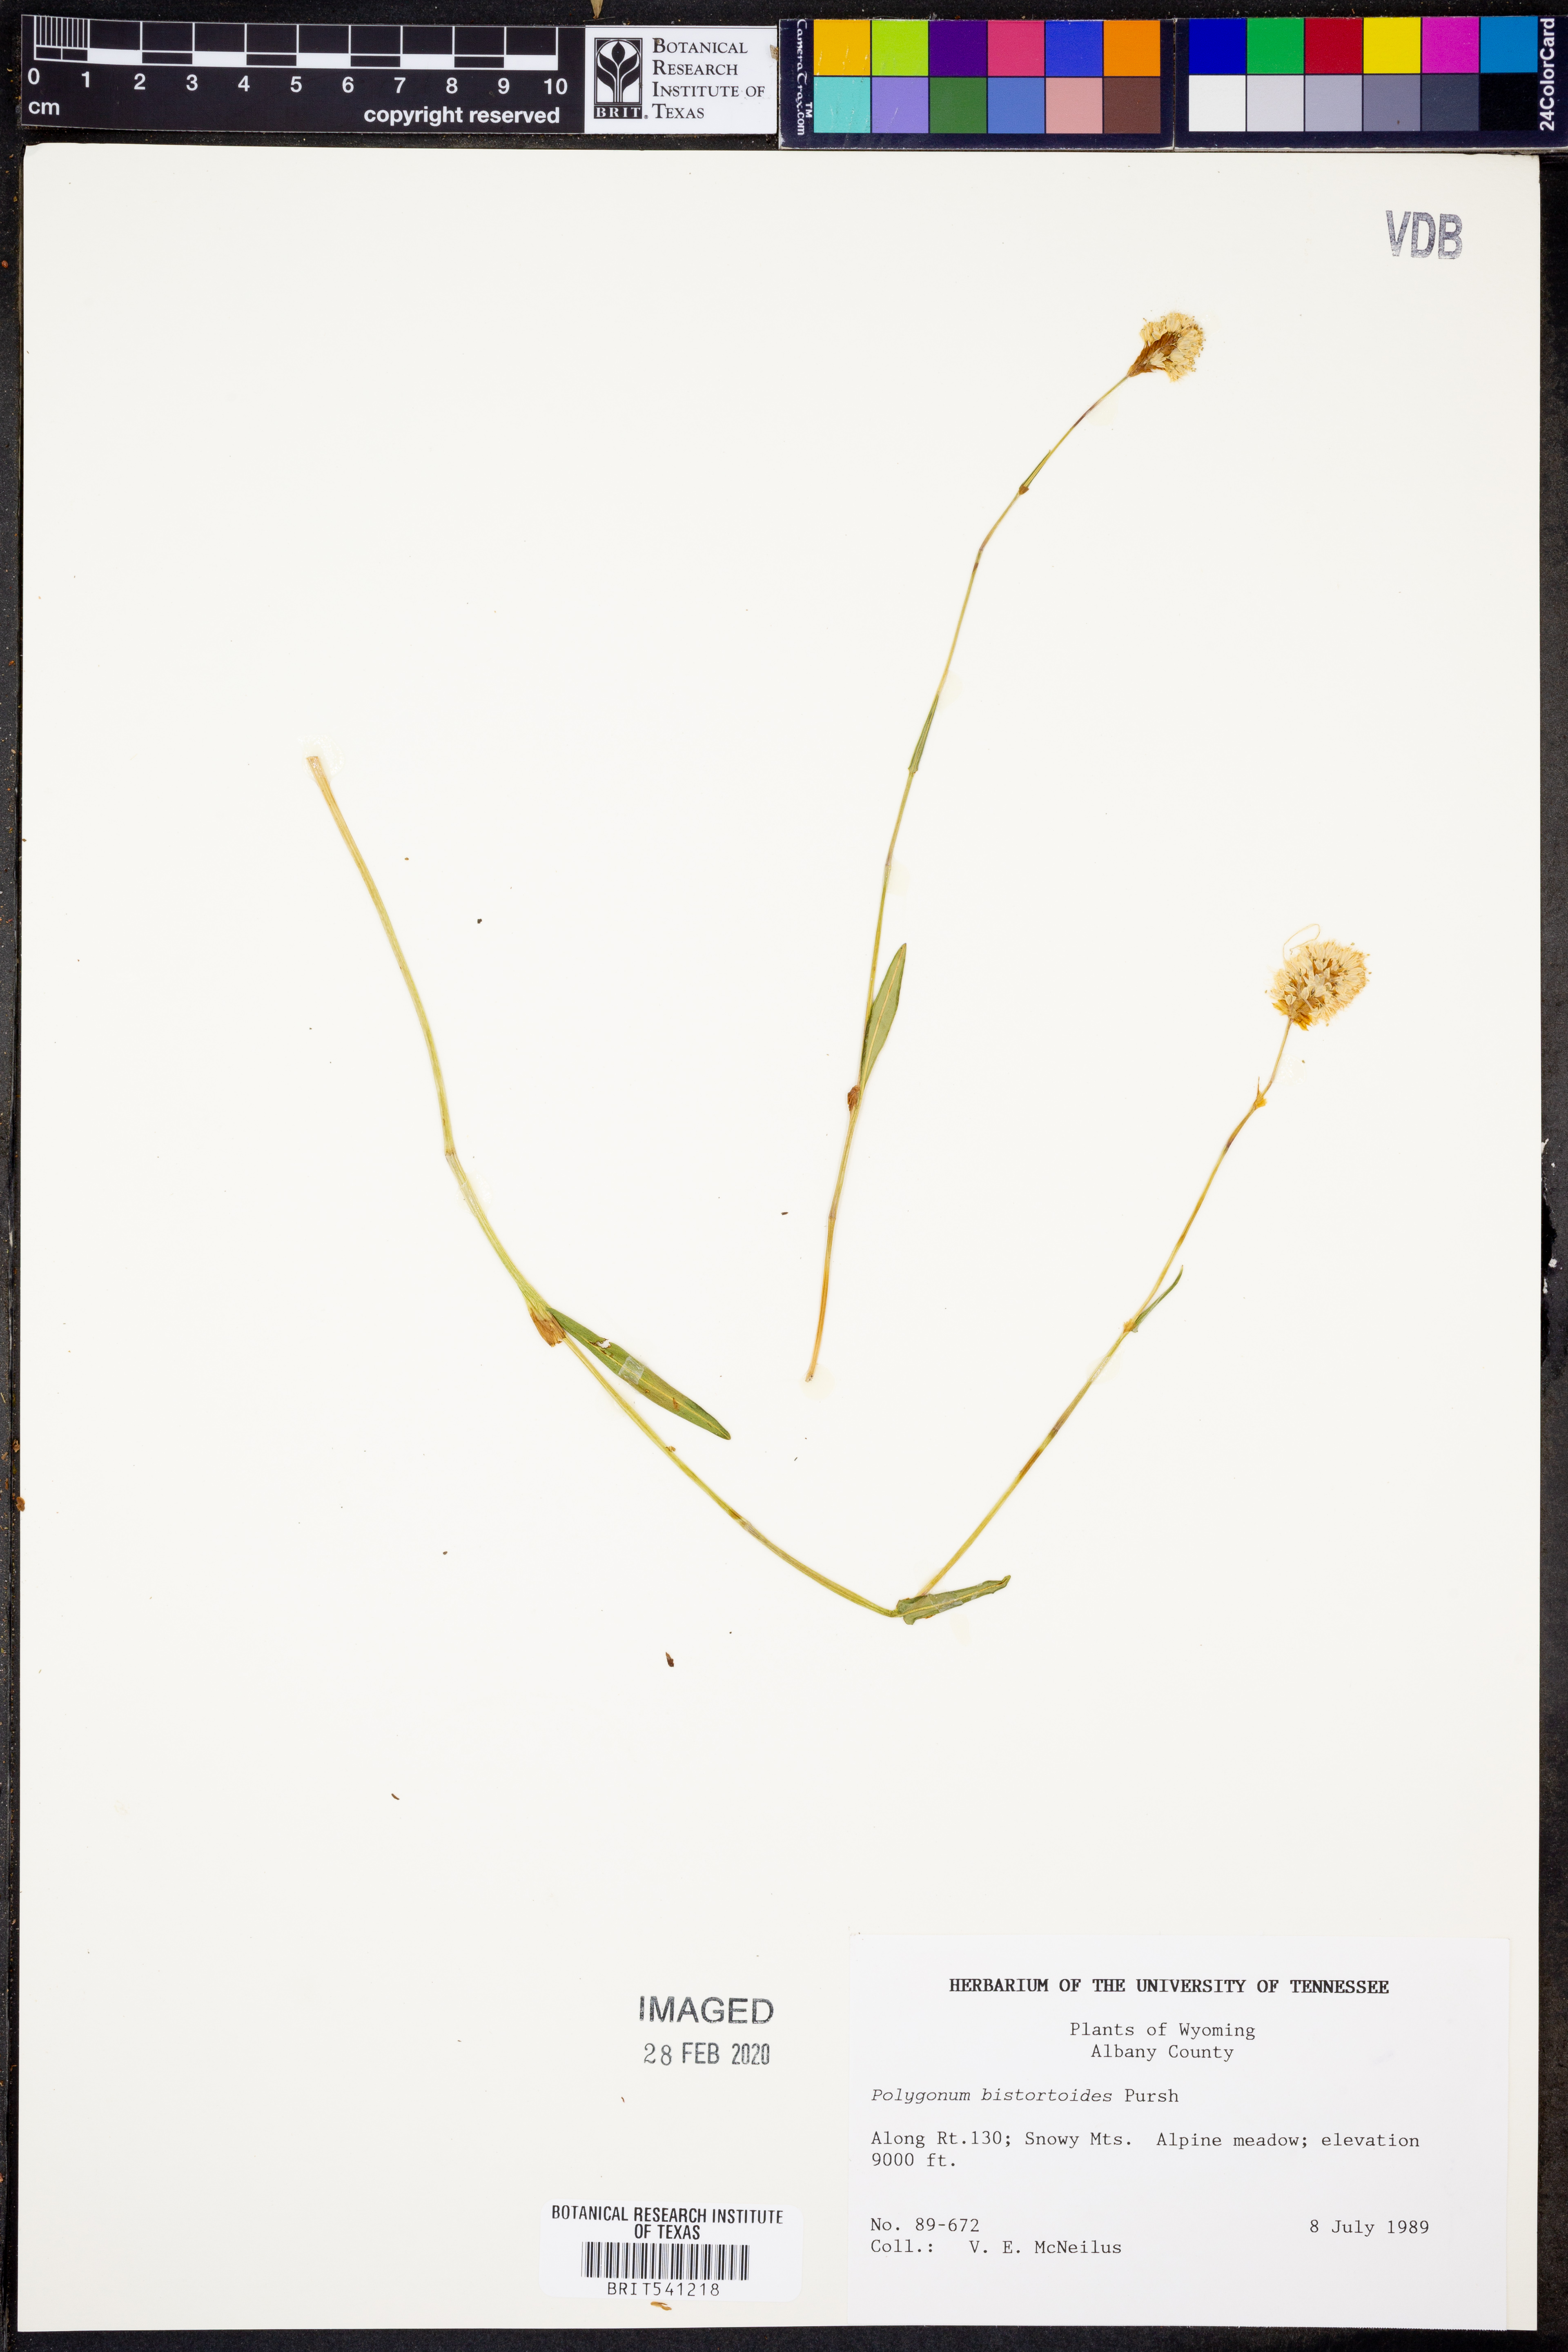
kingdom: Plantae
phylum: Tracheophyta
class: Magnoliopsida
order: Caryophyllales
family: Polygonaceae
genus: Bistorta
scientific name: Bistorta bistortoides
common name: American bistort
